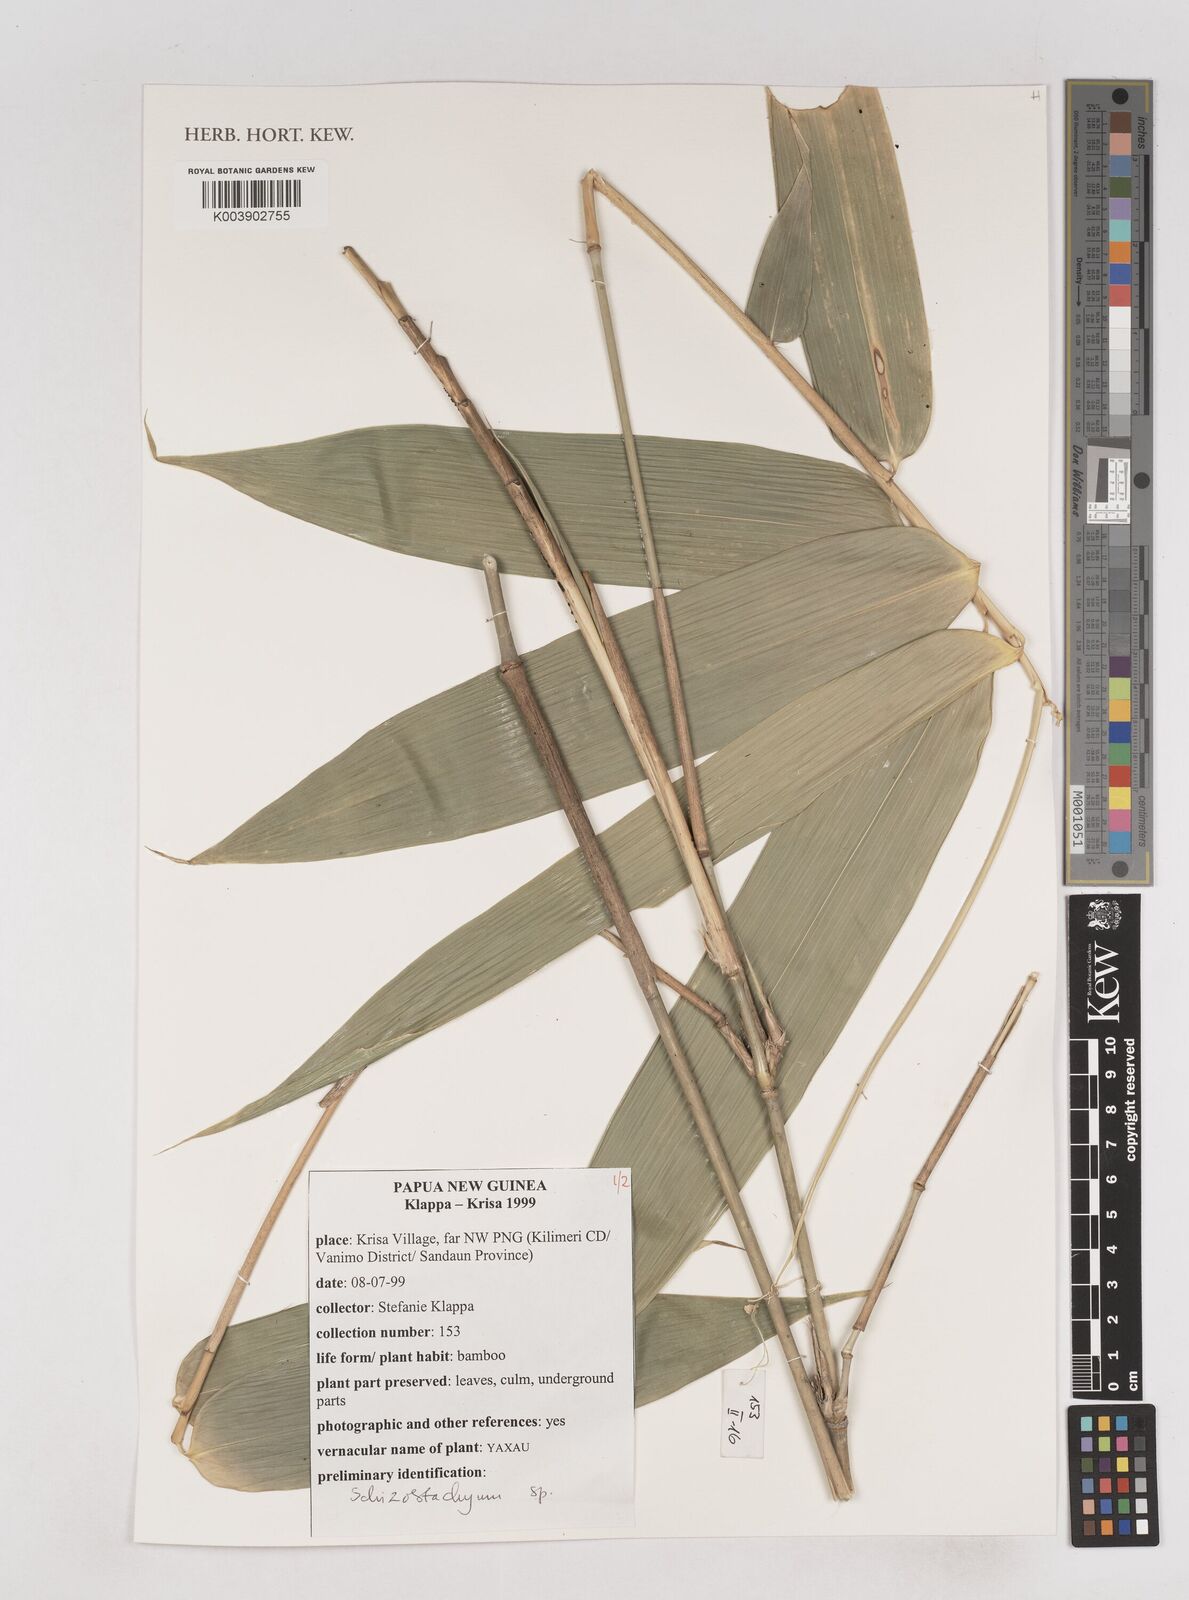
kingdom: Plantae
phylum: Tracheophyta
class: Liliopsida
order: Poales
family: Poaceae
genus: Schizostachyum
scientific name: Schizostachyum
